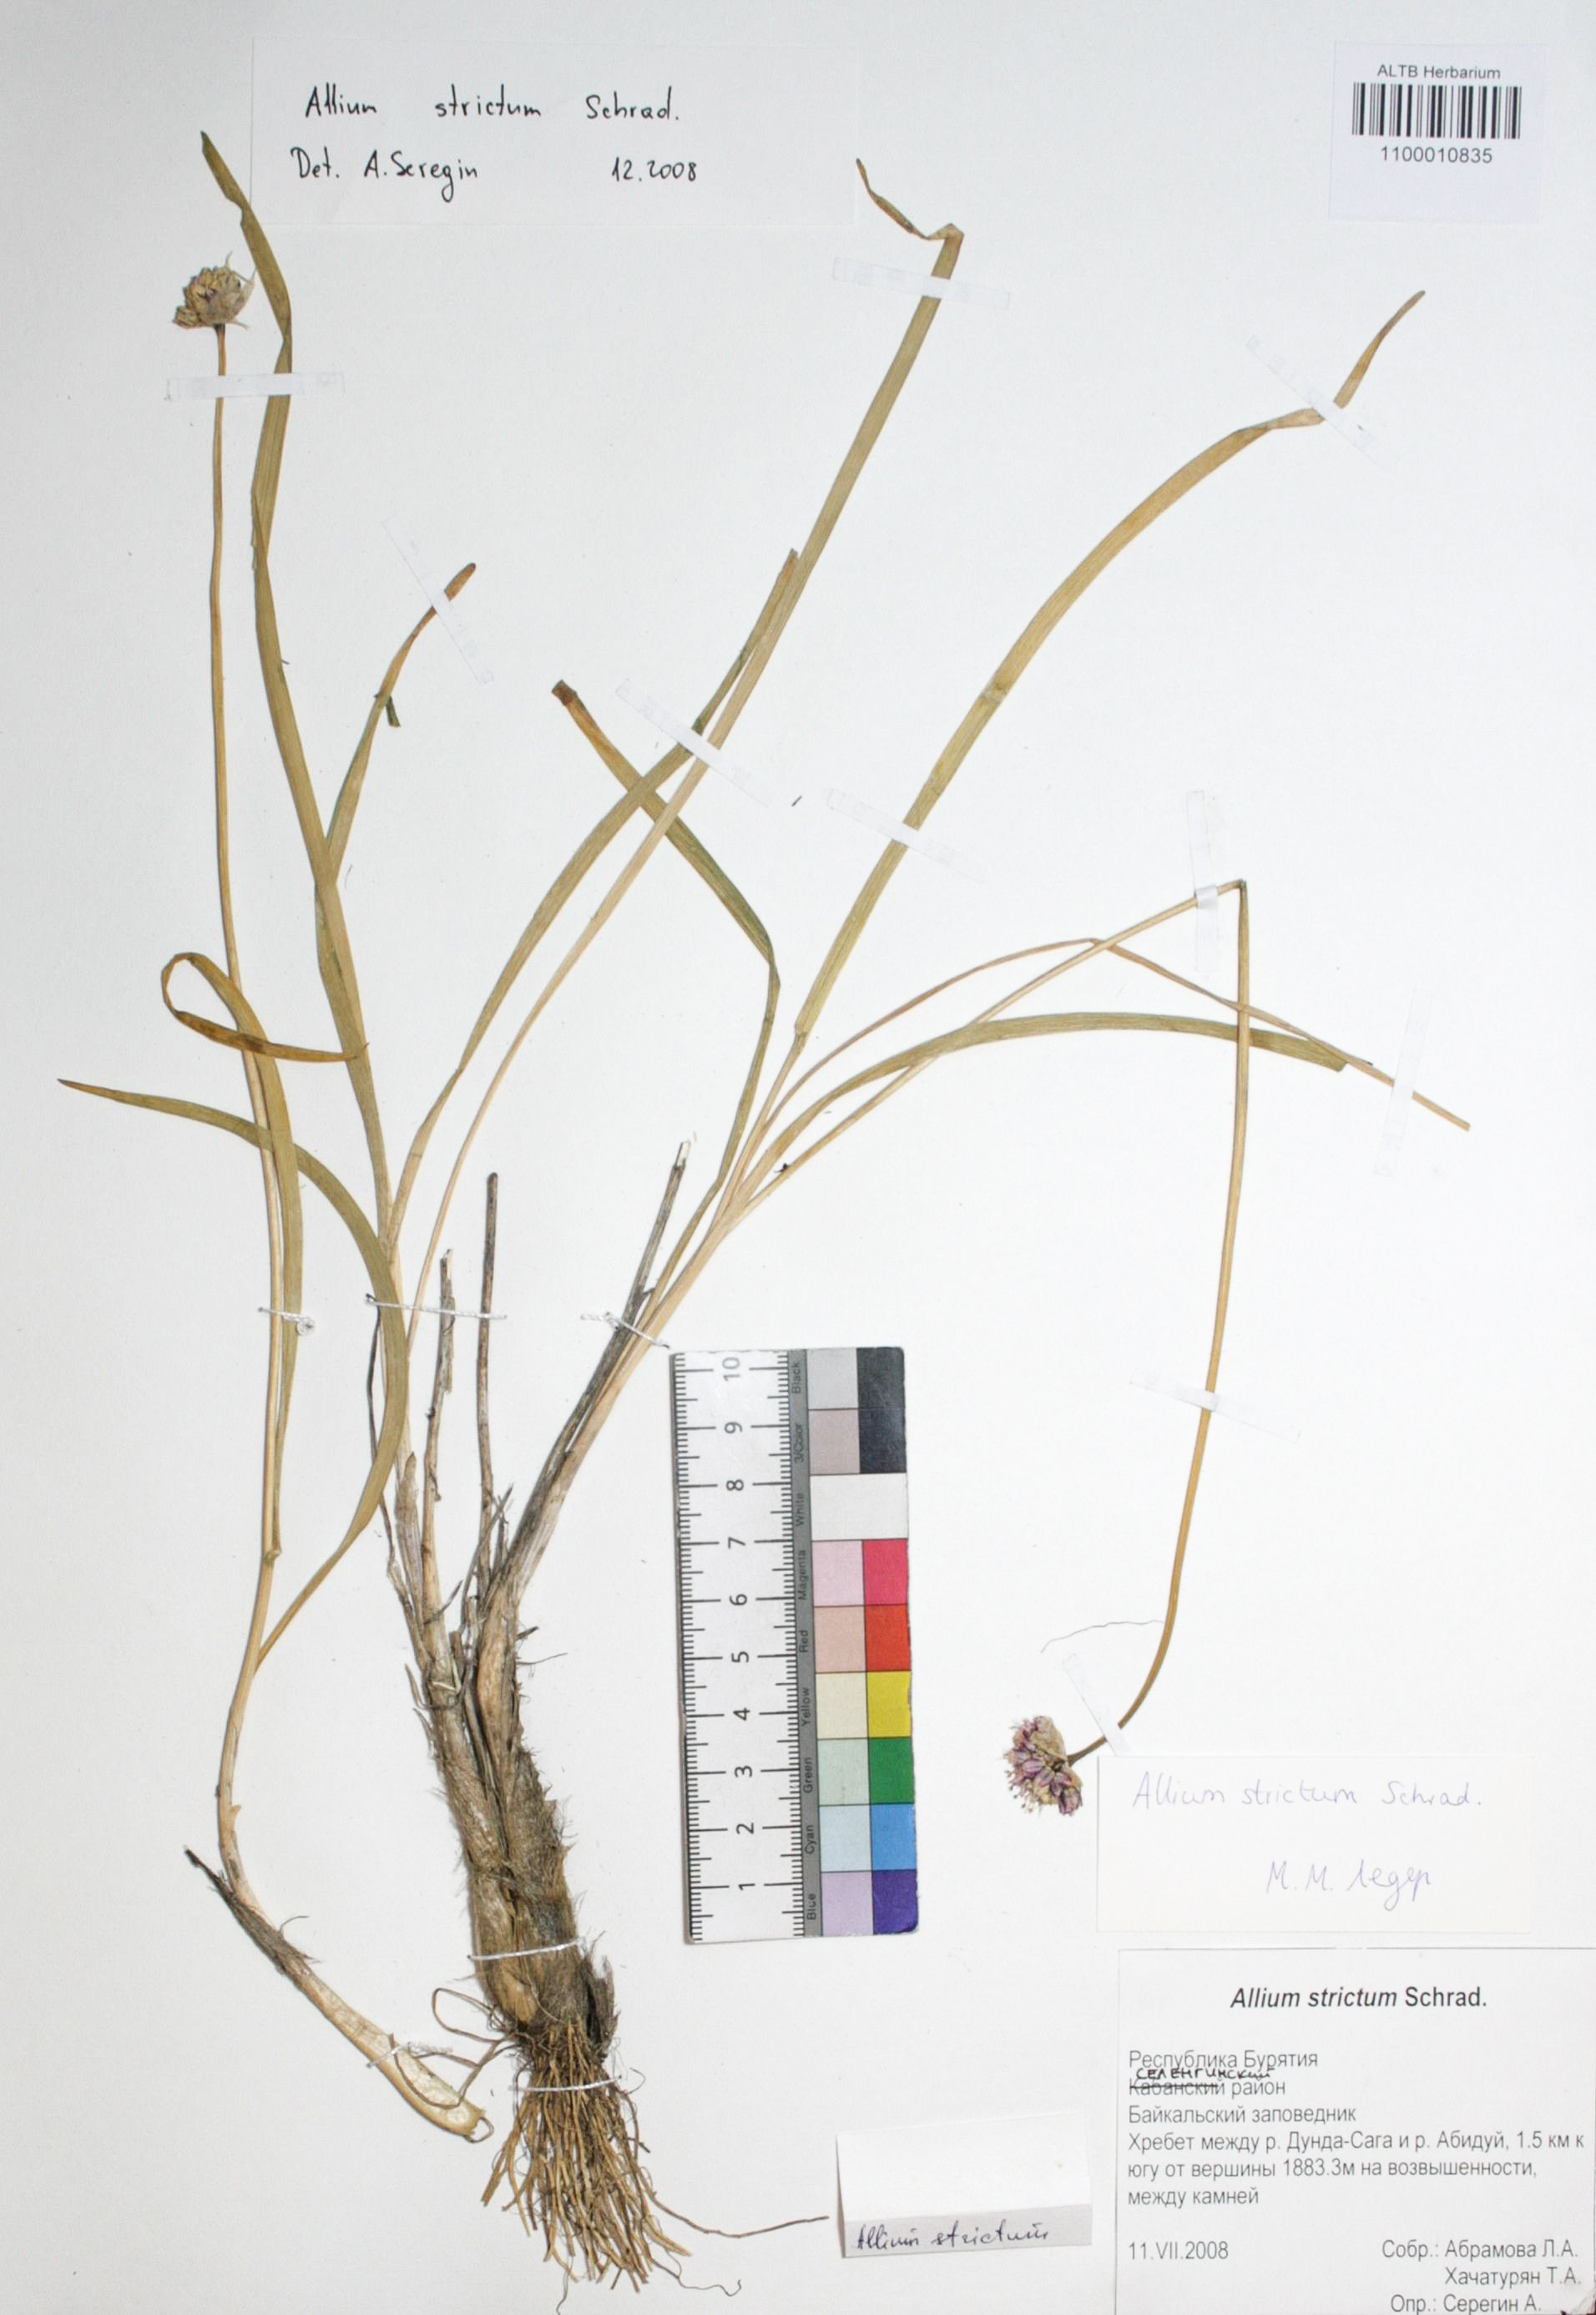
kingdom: Plantae
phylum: Tracheophyta
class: Liliopsida
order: Asparagales
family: Amaryllidaceae
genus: Allium
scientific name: Allium strictum
